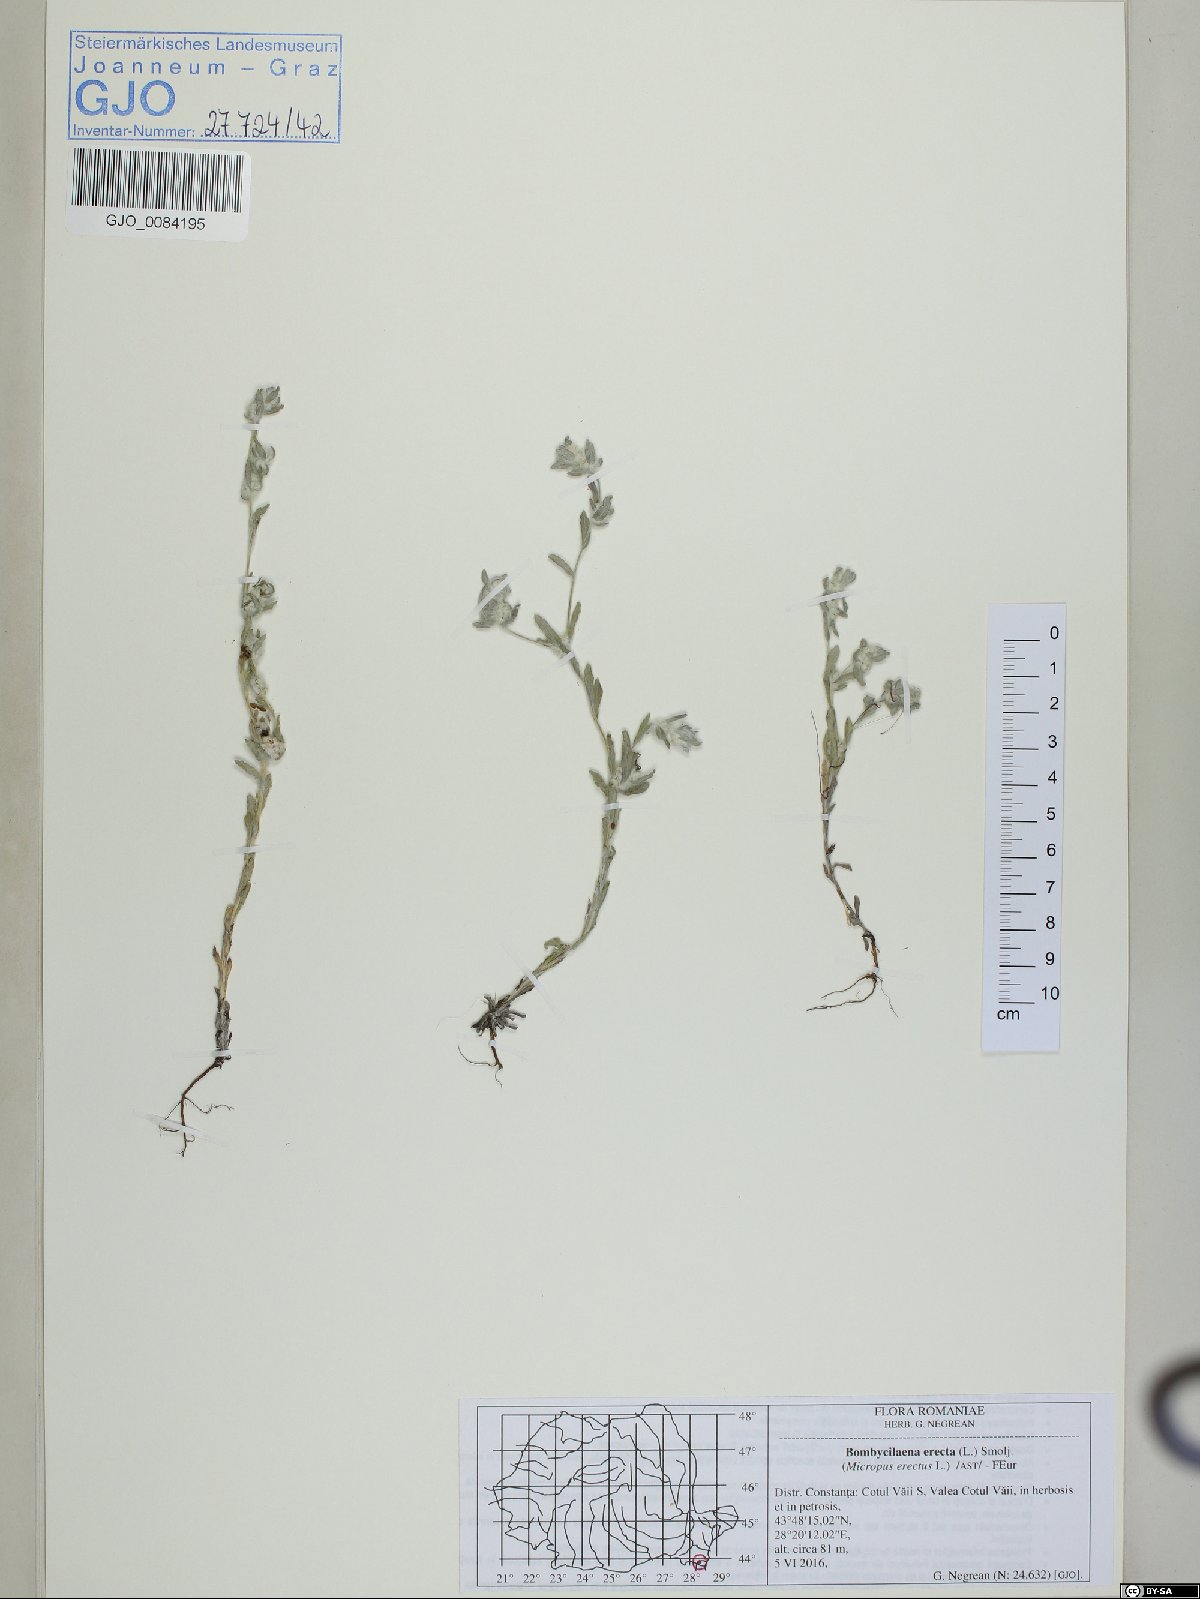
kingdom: Plantae
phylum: Tracheophyta
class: Magnoliopsida
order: Asterales
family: Asteraceae
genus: Bombycilaena
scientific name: Bombycilaena erecta
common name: Micropus
